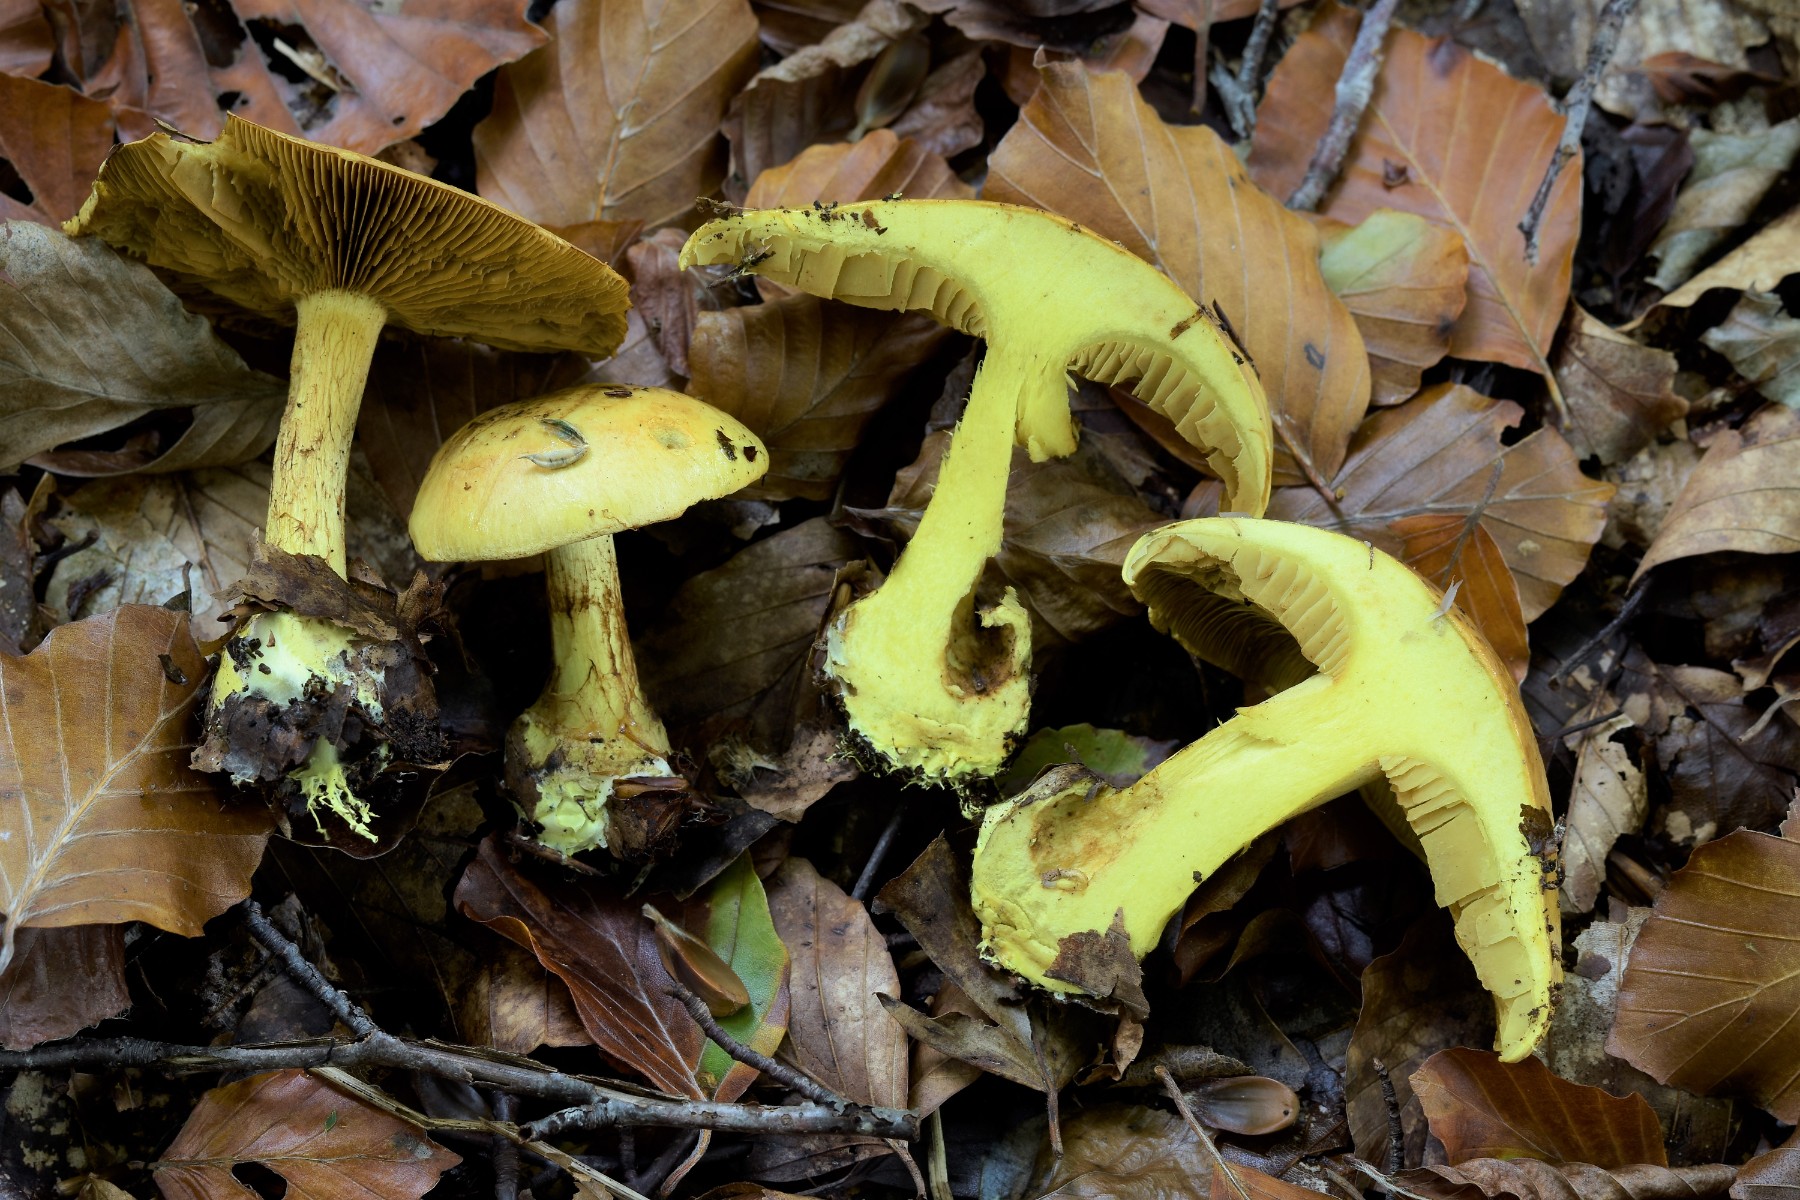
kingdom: Fungi
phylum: Basidiomycota
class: Agaricomycetes
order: Agaricales
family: Cortinariaceae
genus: Calonarius
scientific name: Calonarius splendens
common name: sirene-slørhat
